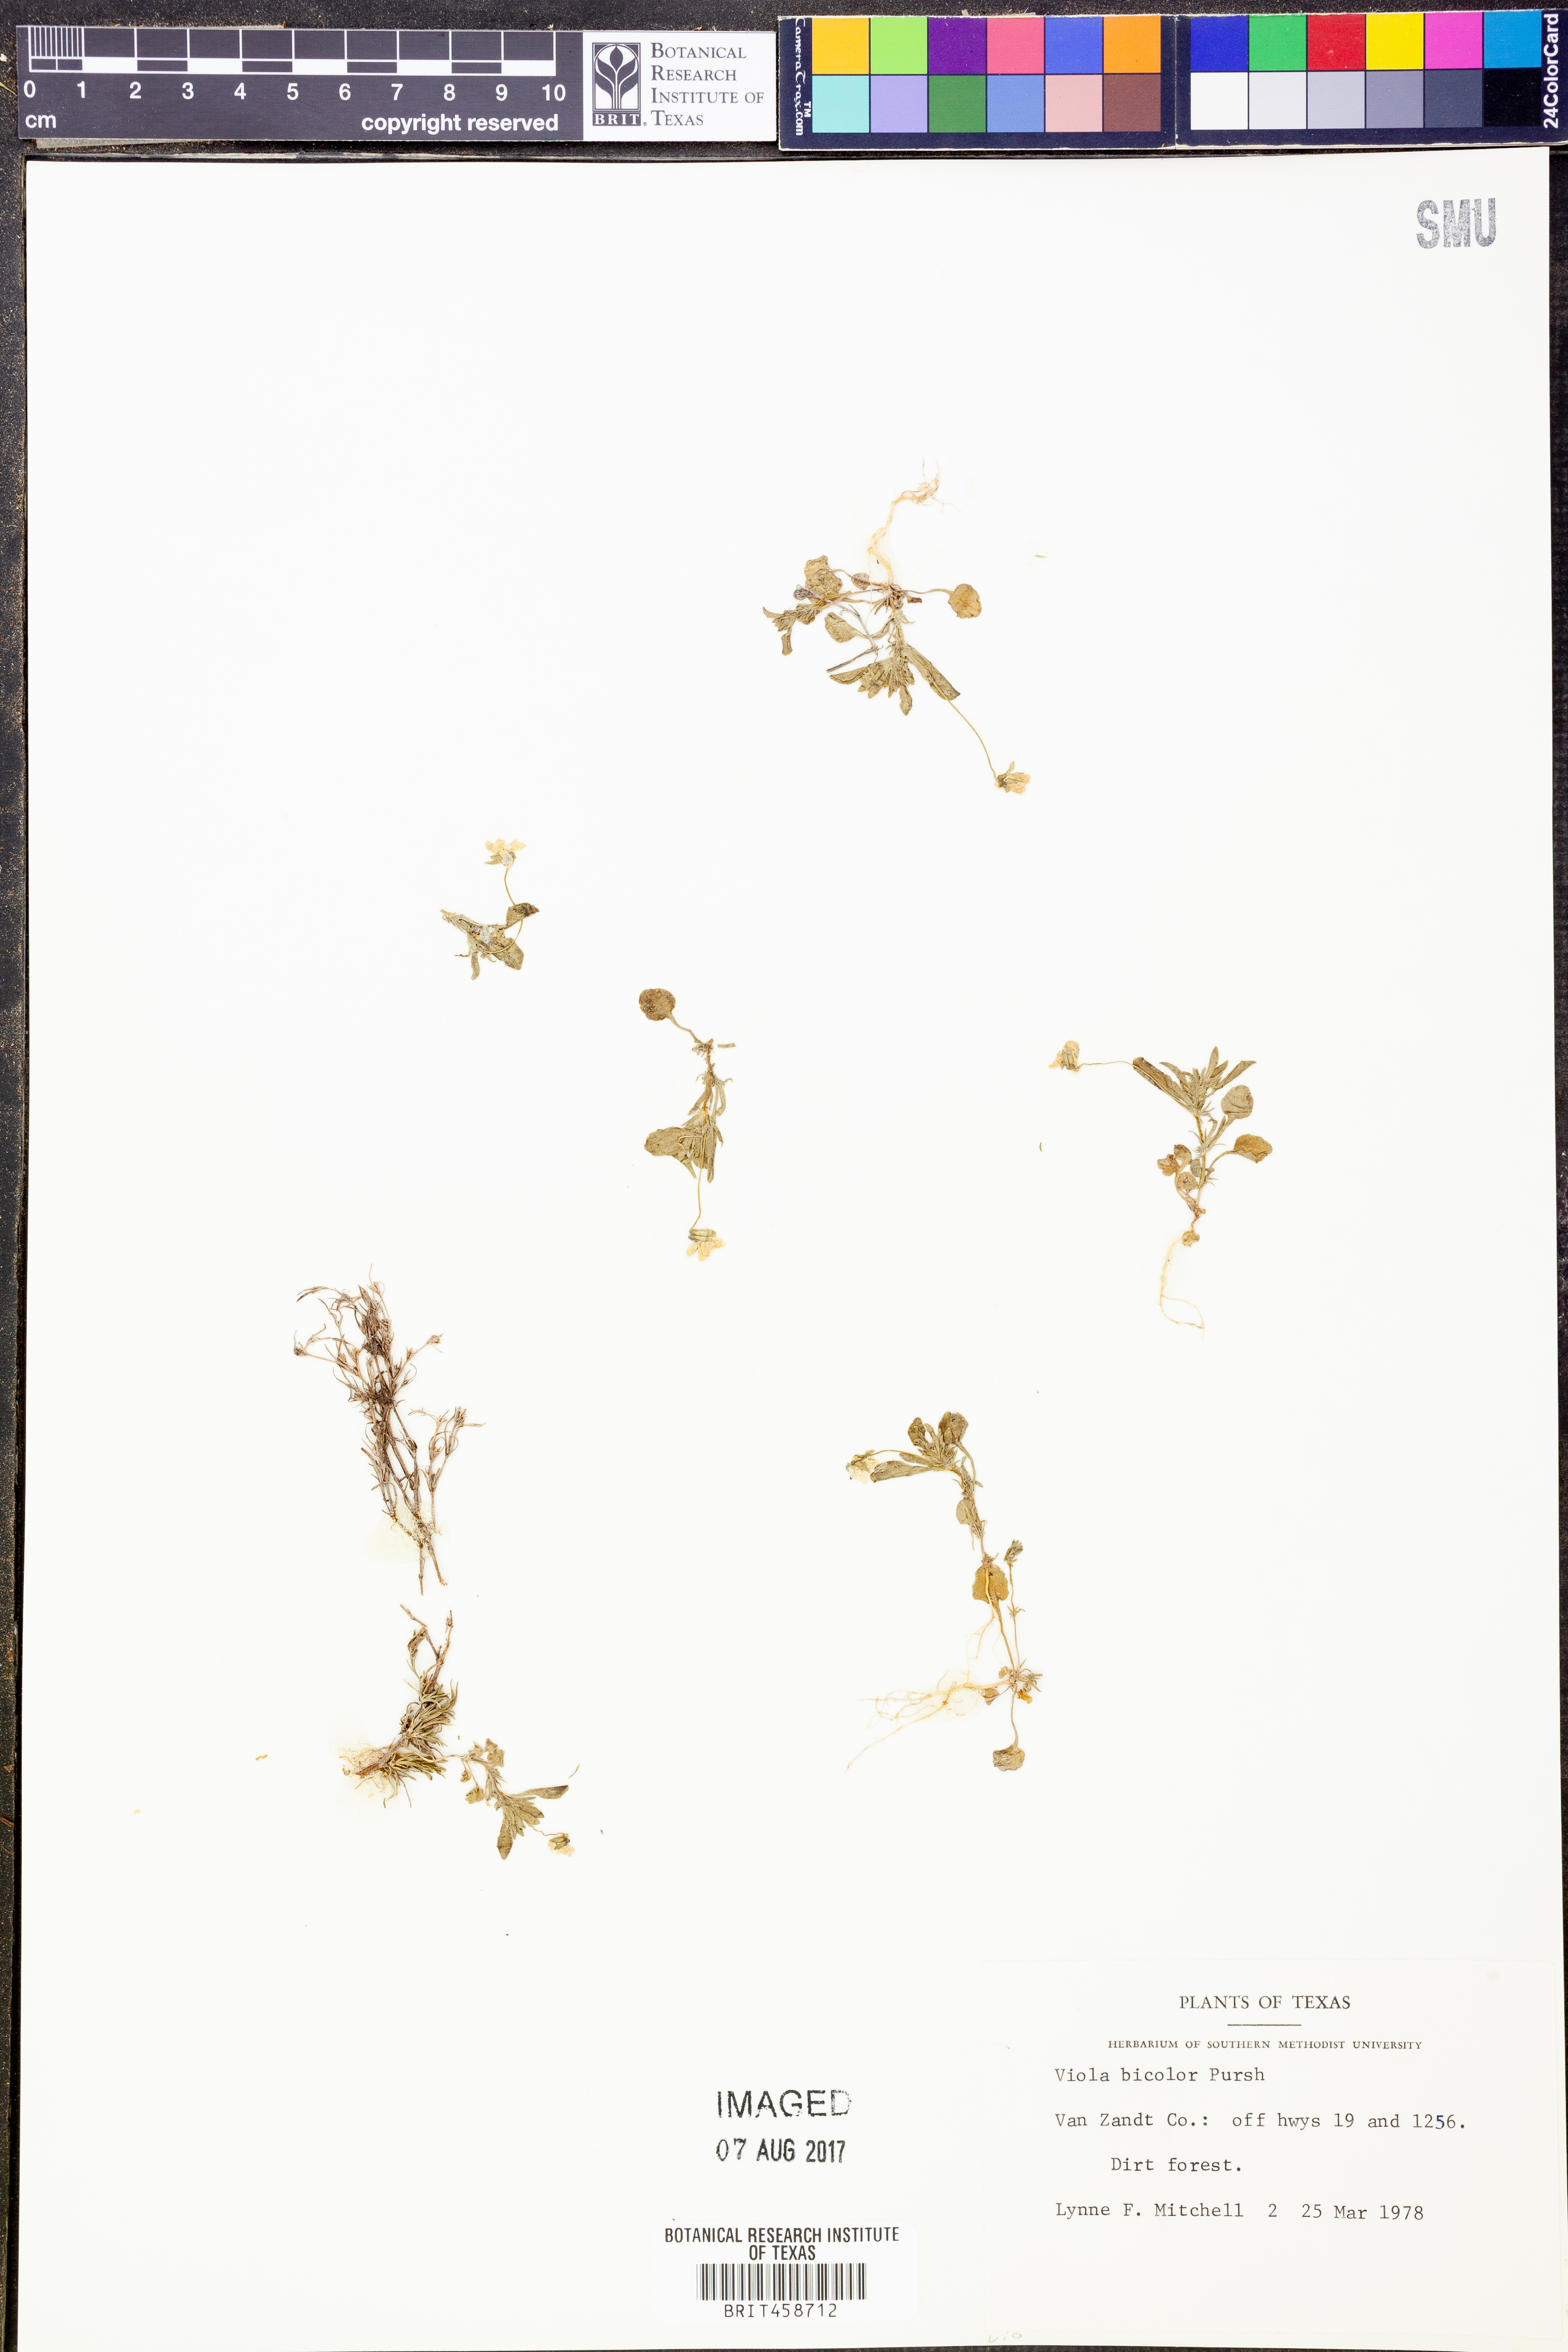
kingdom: Plantae
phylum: Tracheophyta
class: Magnoliopsida
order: Malpighiales
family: Violaceae
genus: Viola
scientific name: Viola rafinesquei
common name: American field pansy
